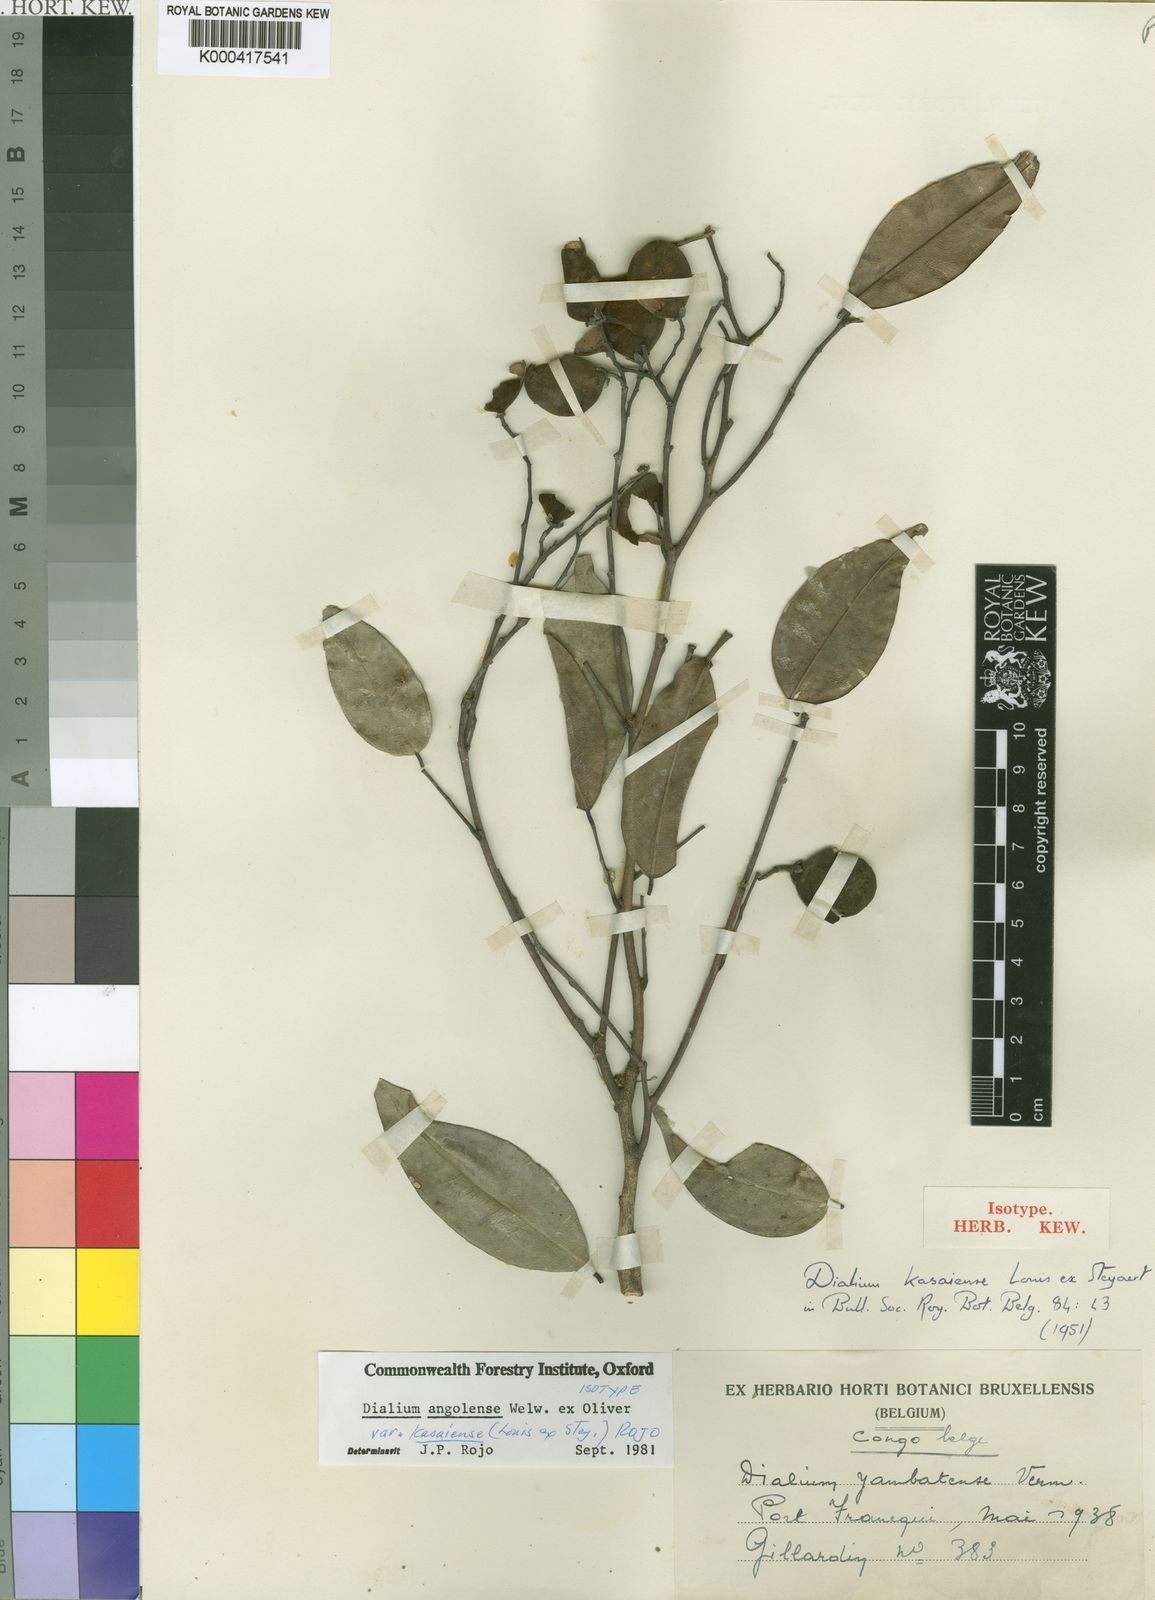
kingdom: Plantae
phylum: Tracheophyta
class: Magnoliopsida
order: Fabales
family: Fabaceae
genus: Dialium
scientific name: Dialium kasaiense
